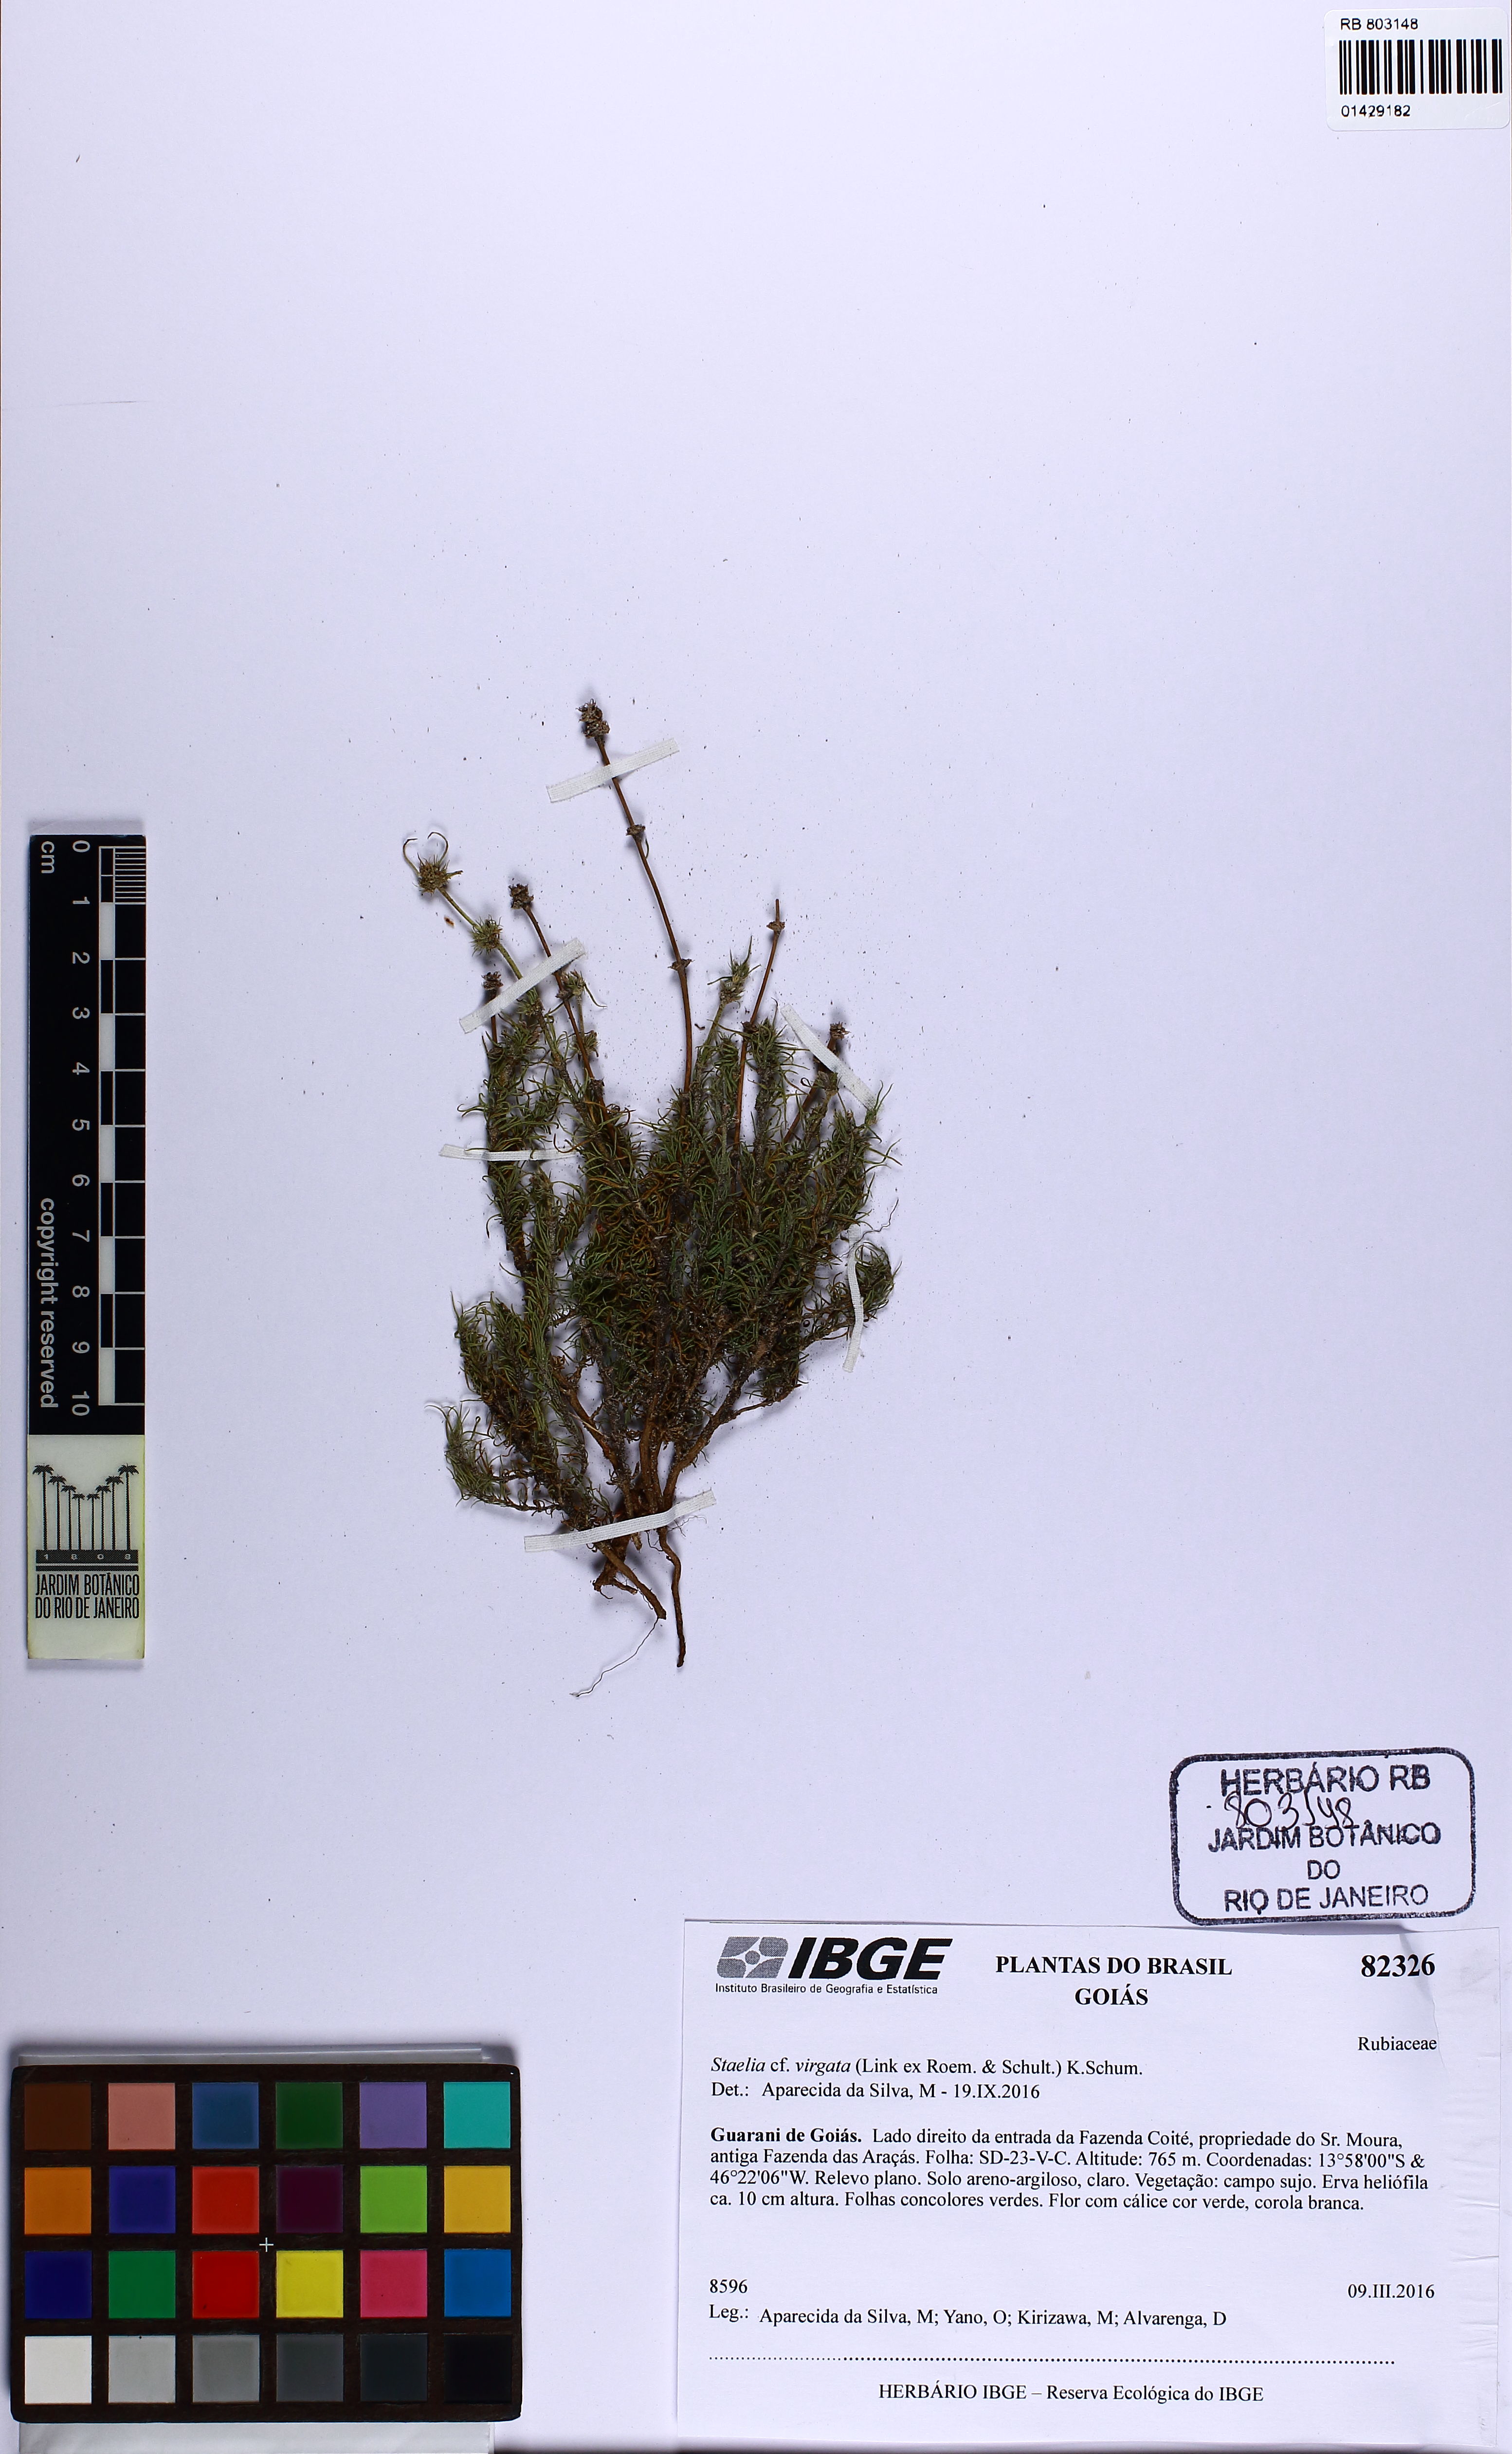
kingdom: Plantae
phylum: Tracheophyta
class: Magnoliopsida
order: Gentianales
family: Rubiaceae
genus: Staelia
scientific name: Staelia virgata
